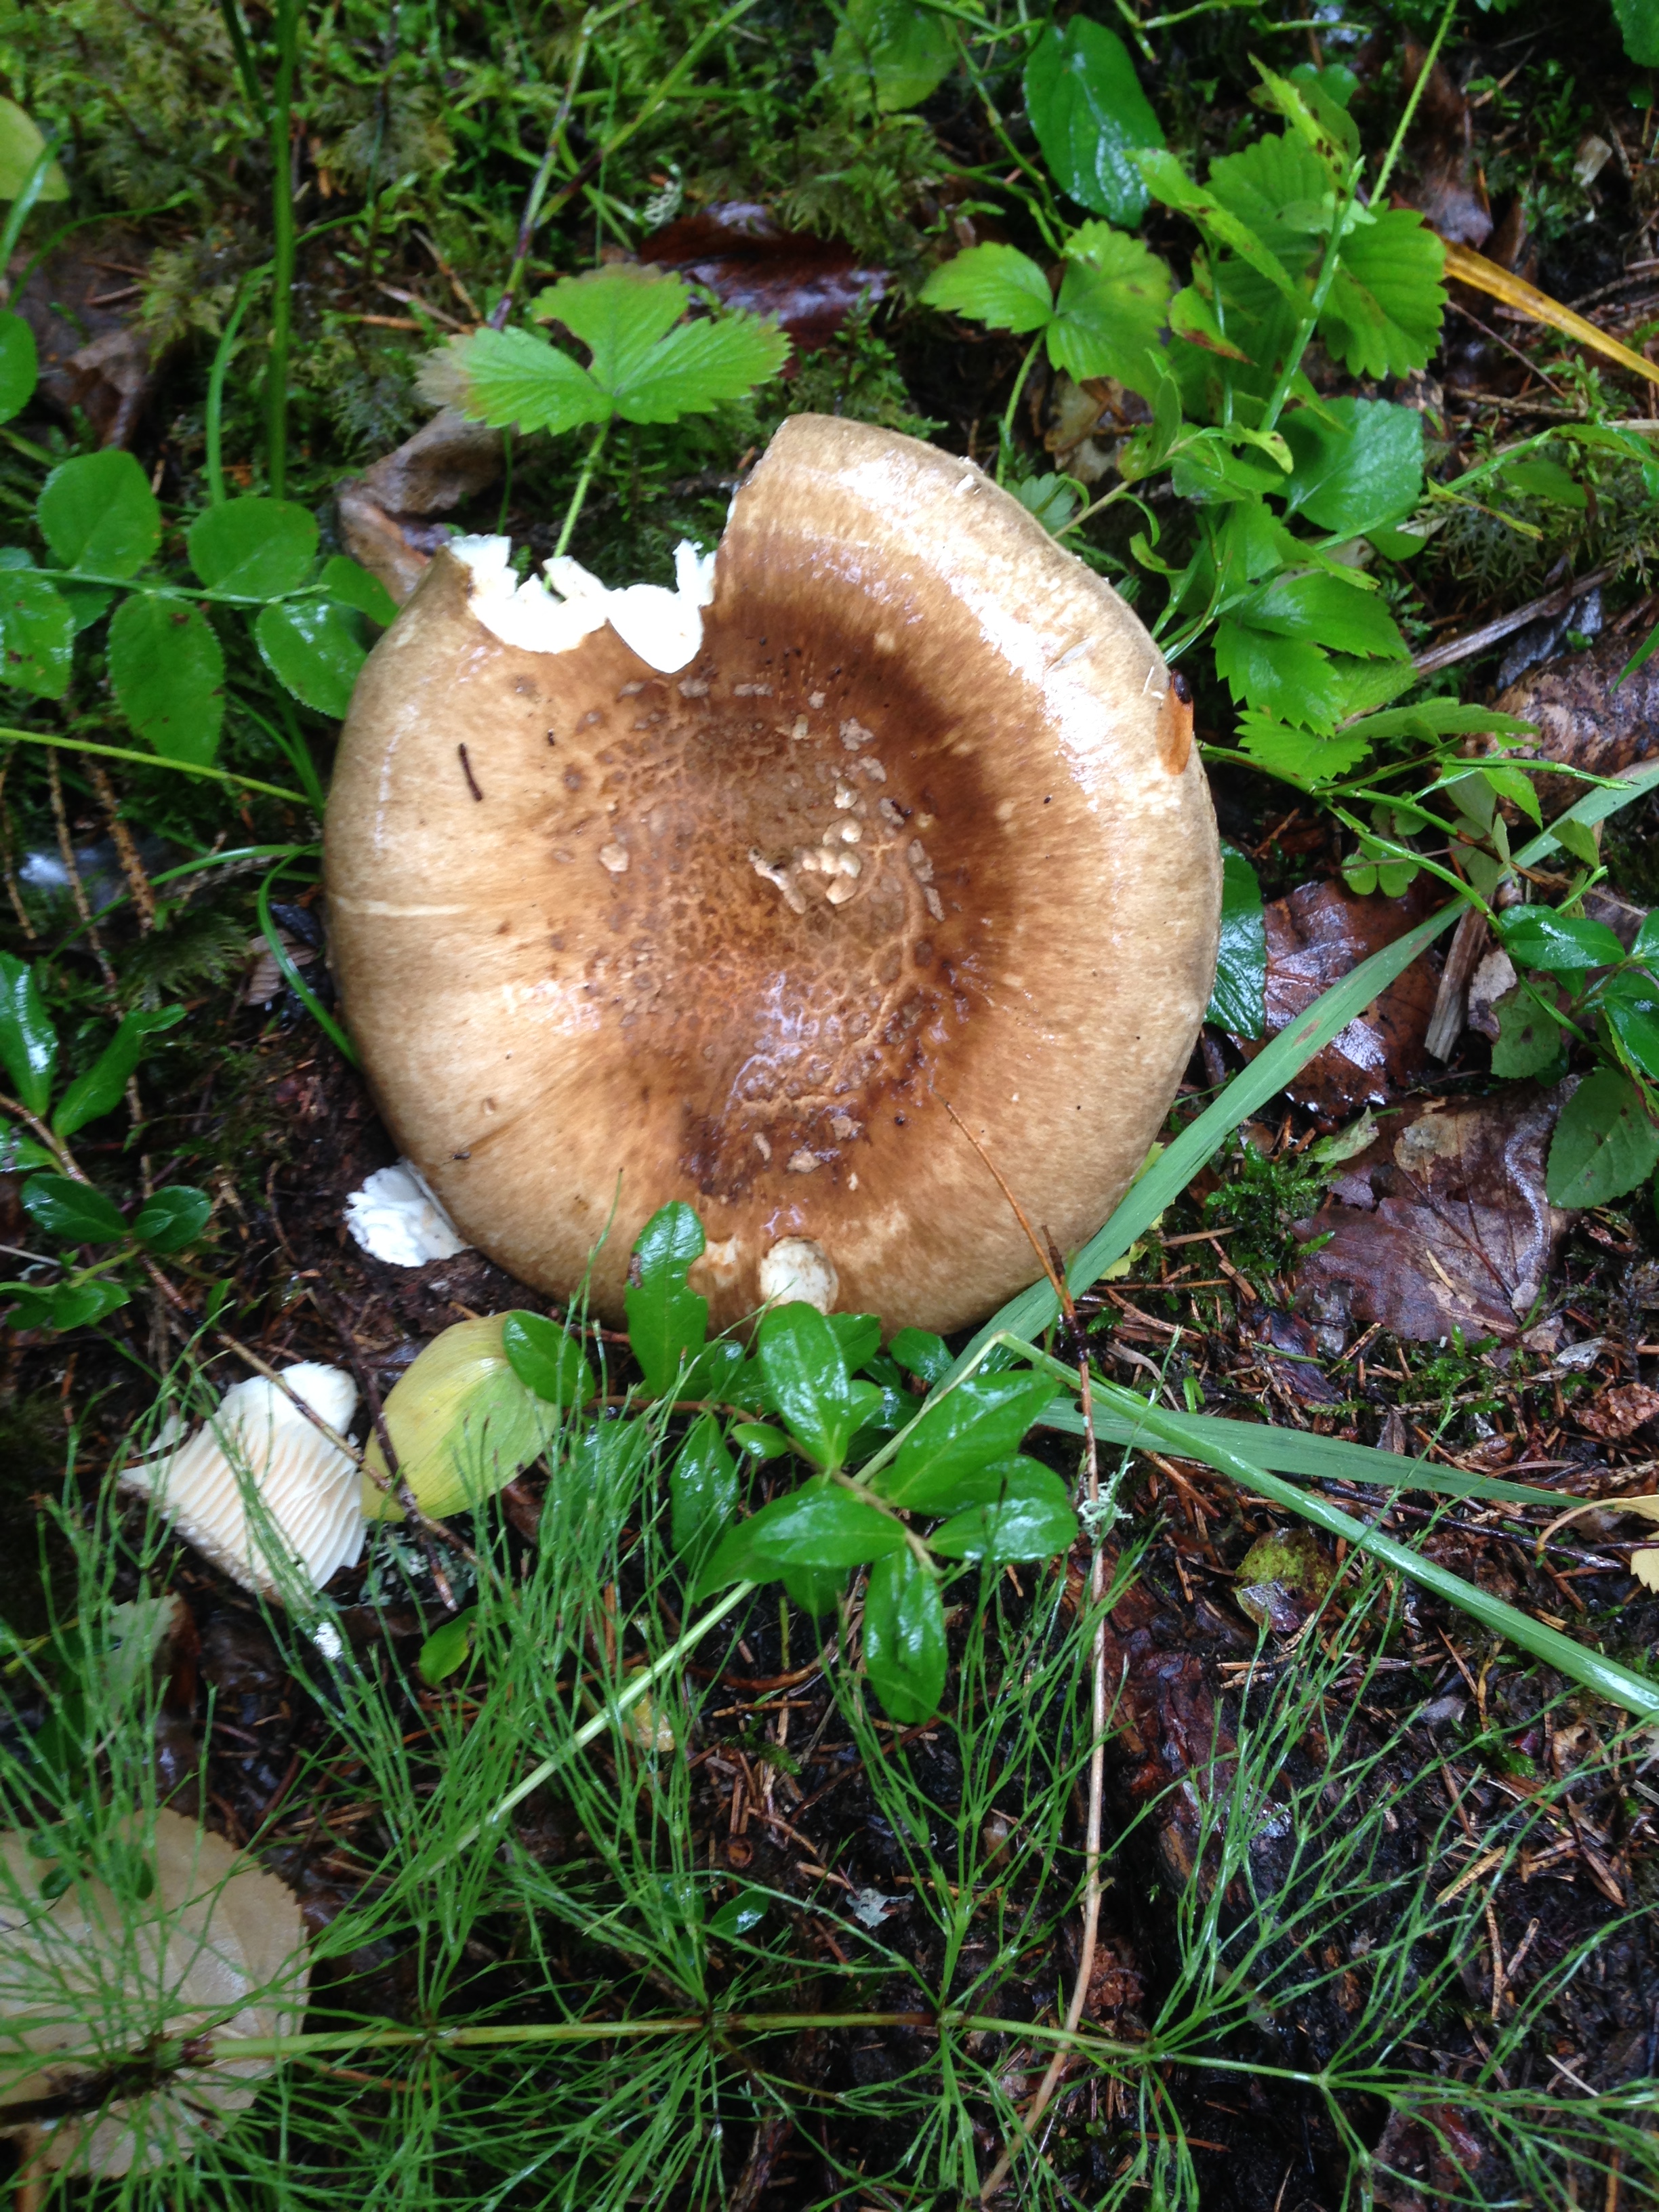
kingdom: Fungi
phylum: Basidiomycota
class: Agaricomycetes
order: Agaricales
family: Biannulariaceae
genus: Catathelasma
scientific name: Catathelasma imperiale
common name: Imperial mushroom
